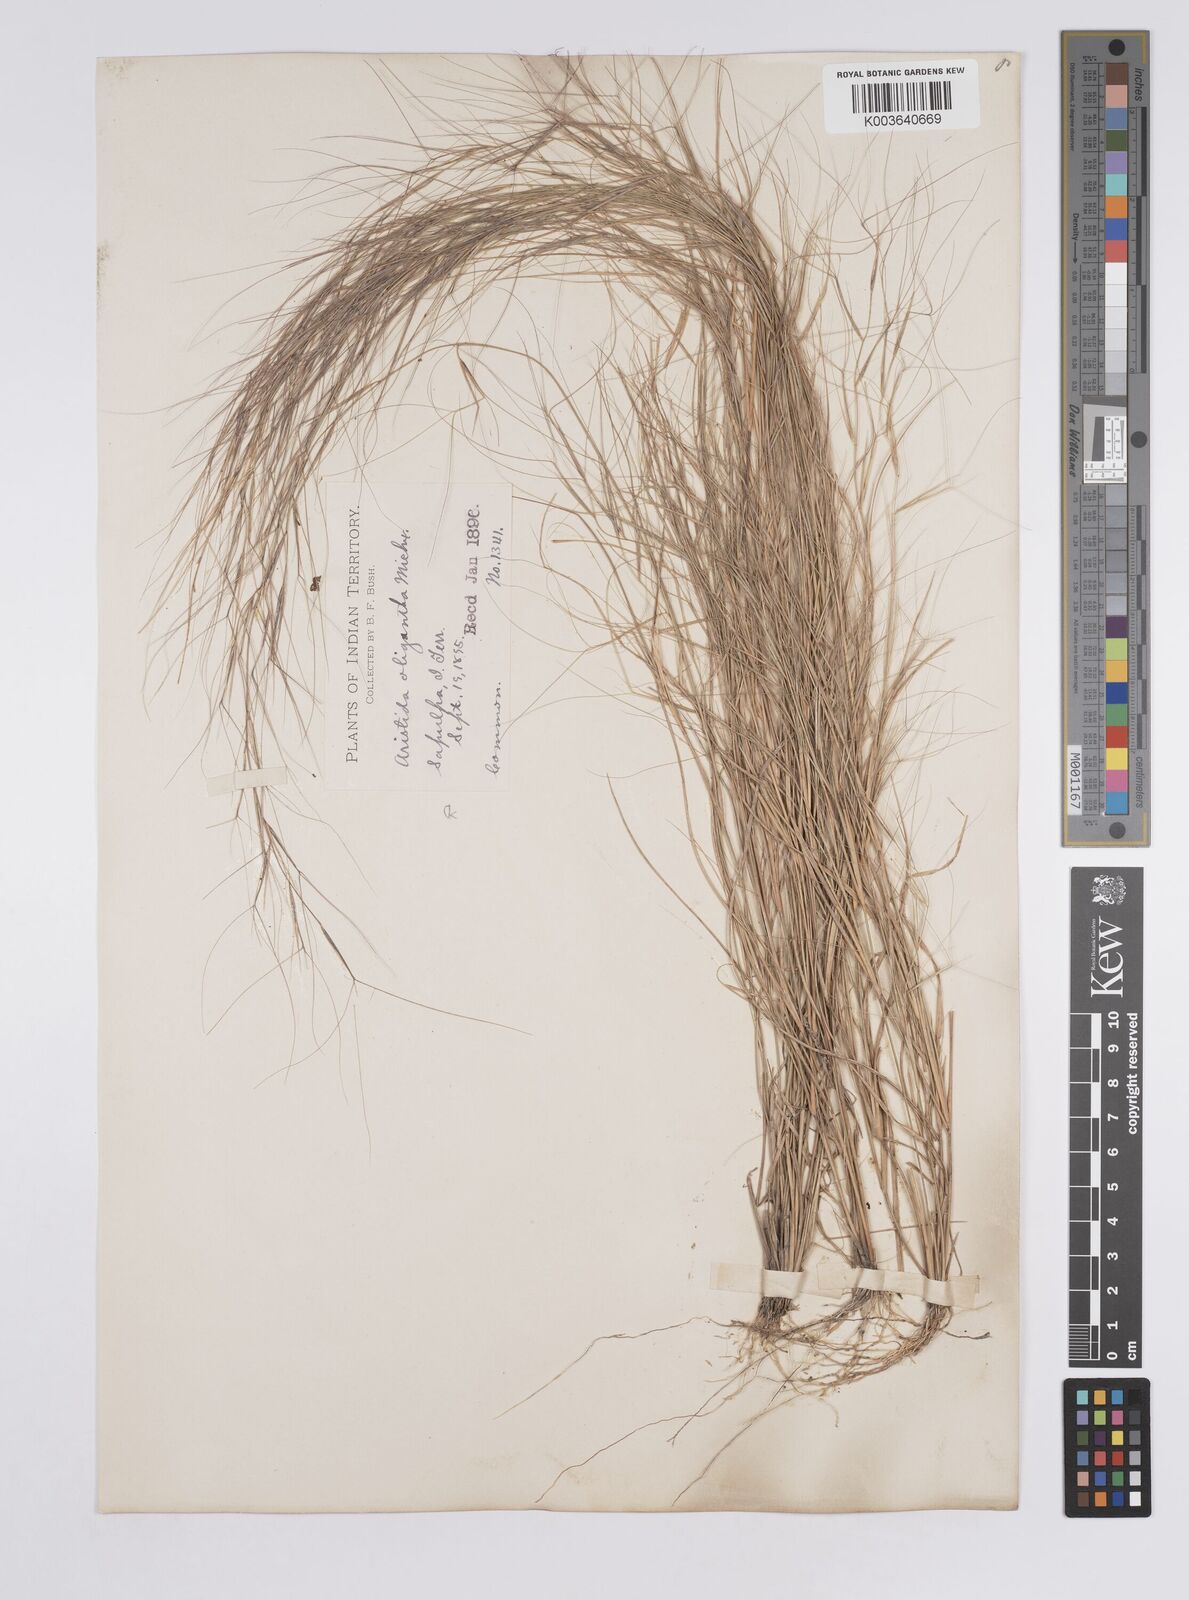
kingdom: Plantae
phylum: Tracheophyta
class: Liliopsida
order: Poales
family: Poaceae
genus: Aristida
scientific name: Aristida oligantha
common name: Few-flowered aristida
